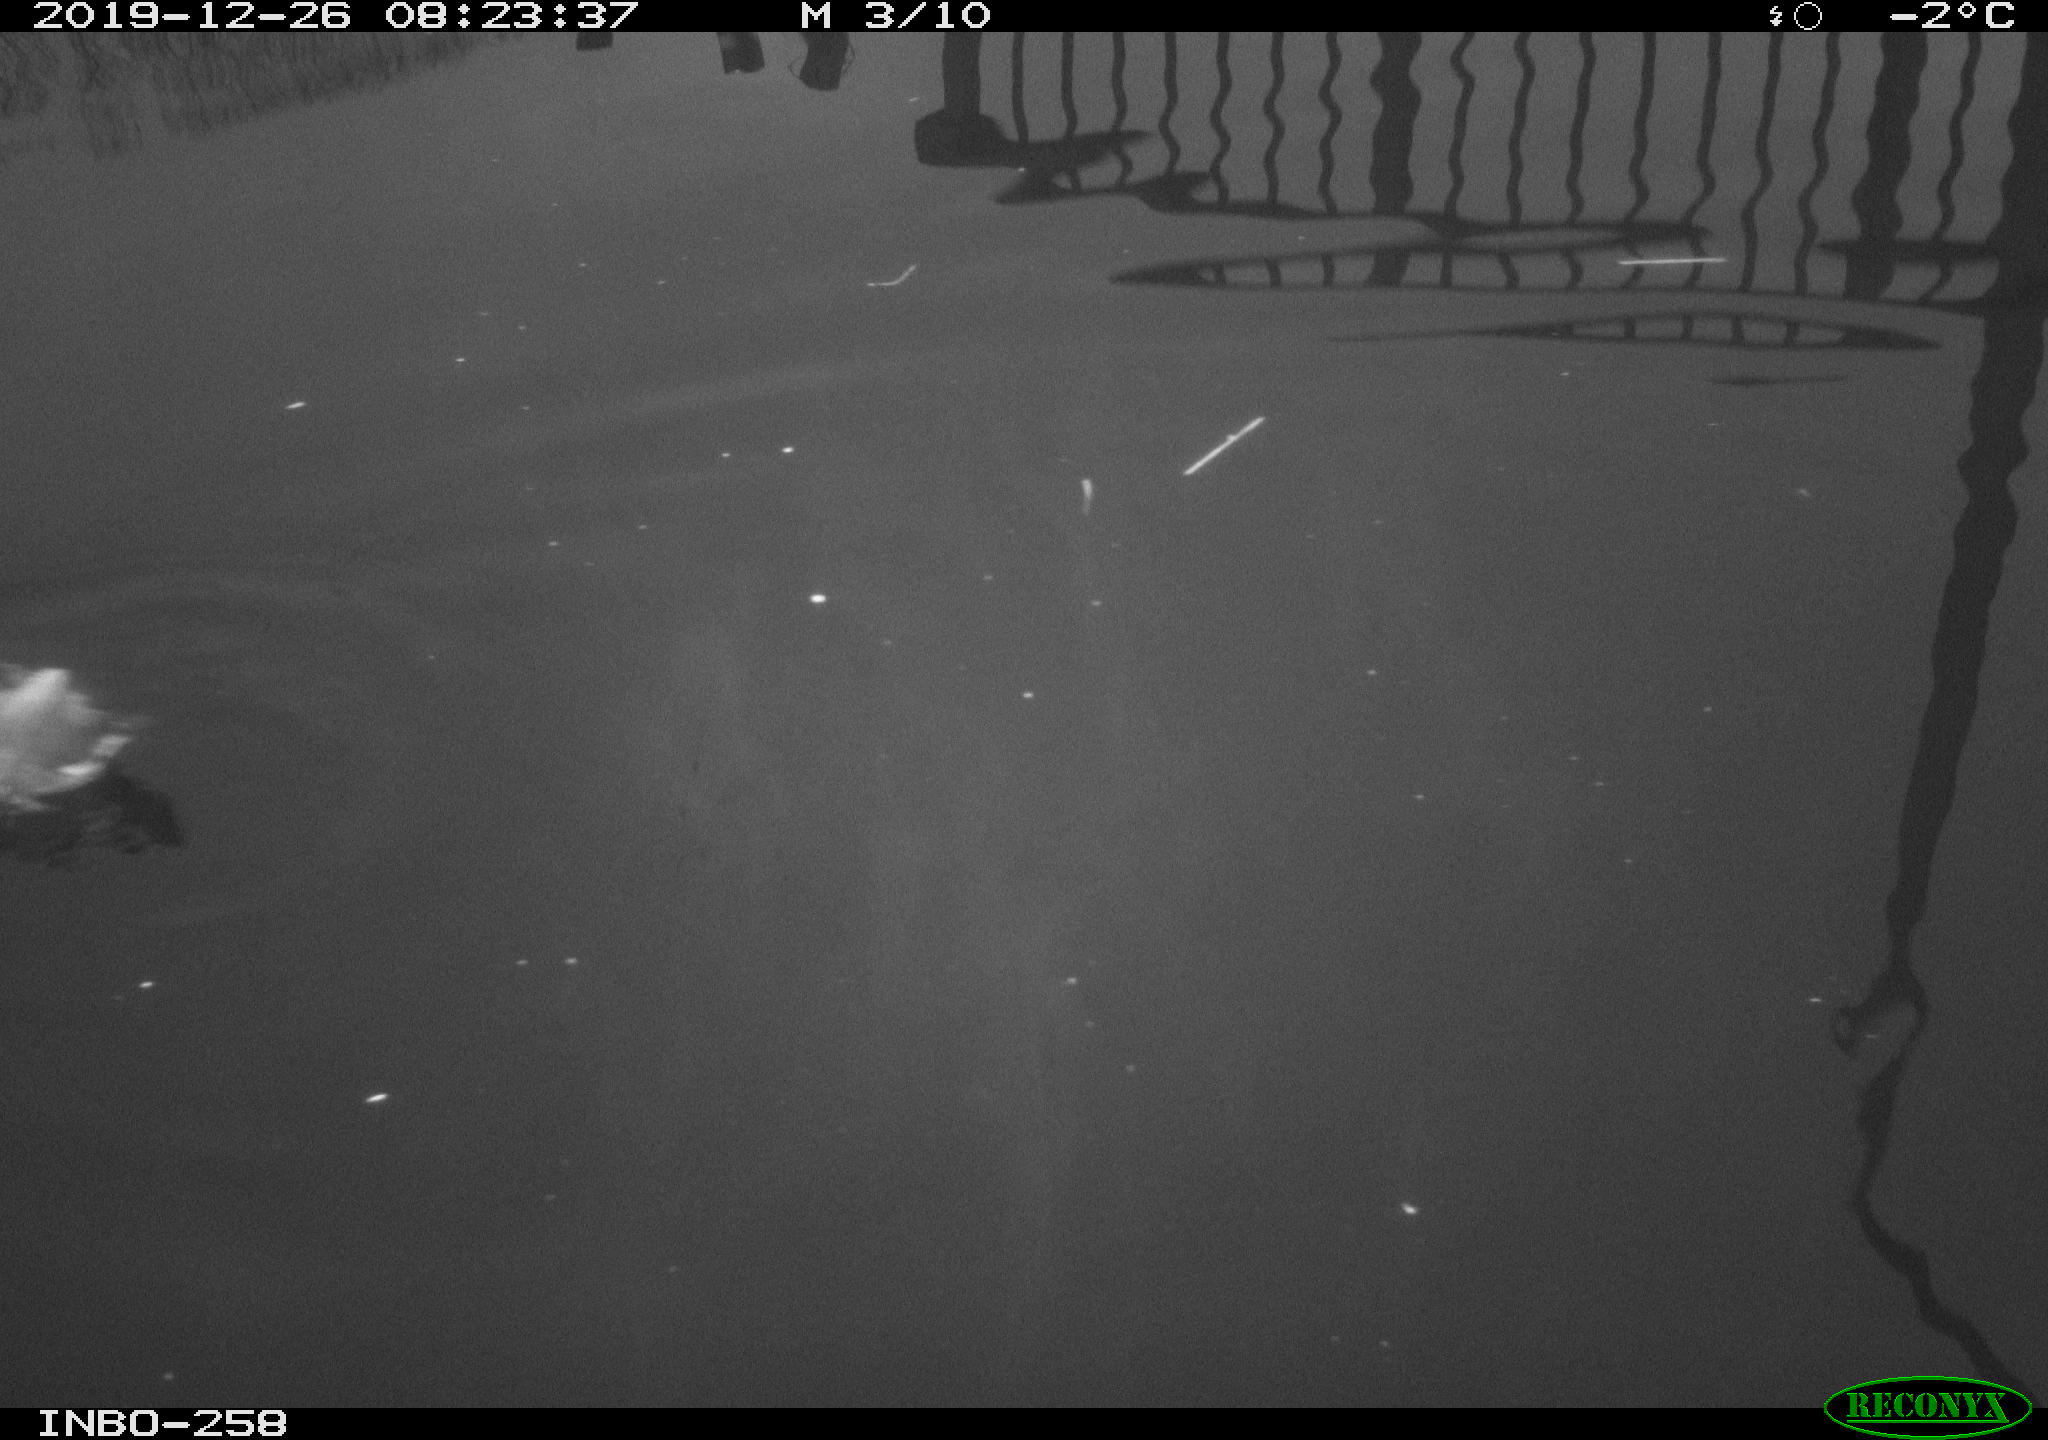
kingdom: Animalia
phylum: Chordata
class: Aves
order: Gruiformes
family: Rallidae
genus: Gallinula
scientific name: Gallinula chloropus
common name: Common moorhen
